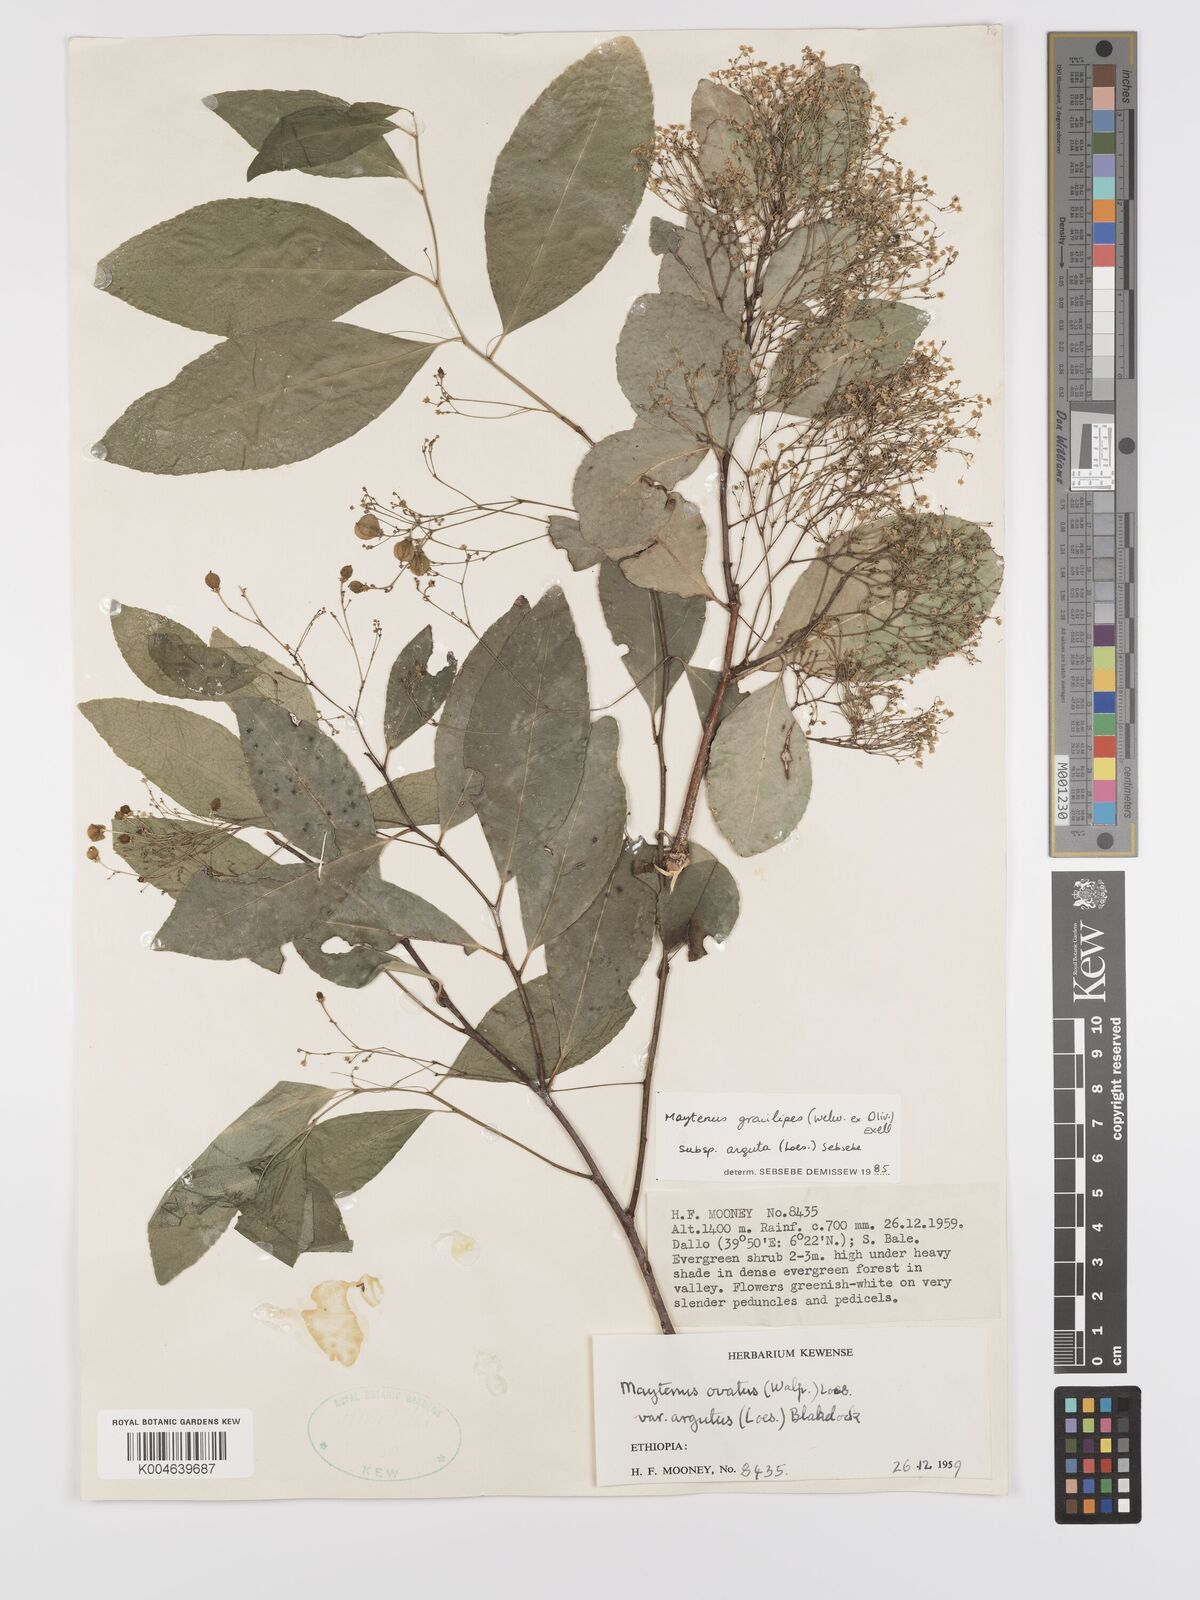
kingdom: Plantae
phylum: Tracheophyta
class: Magnoliopsida
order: Celastrales
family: Celastraceae
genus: Gymnosporia
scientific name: Gymnosporia gracilipes
